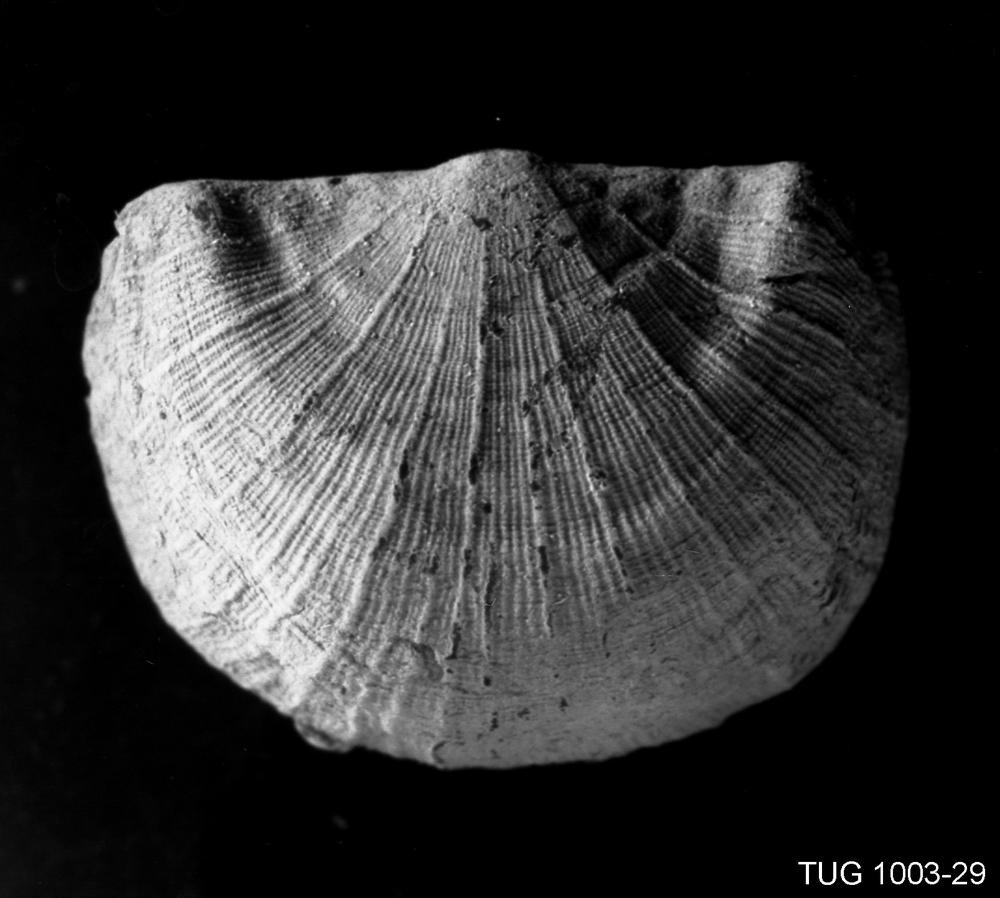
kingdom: Animalia
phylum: Brachiopoda
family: Strophomenidae
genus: Bekkerina
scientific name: Bekkerina Rafinesquina dorsata
